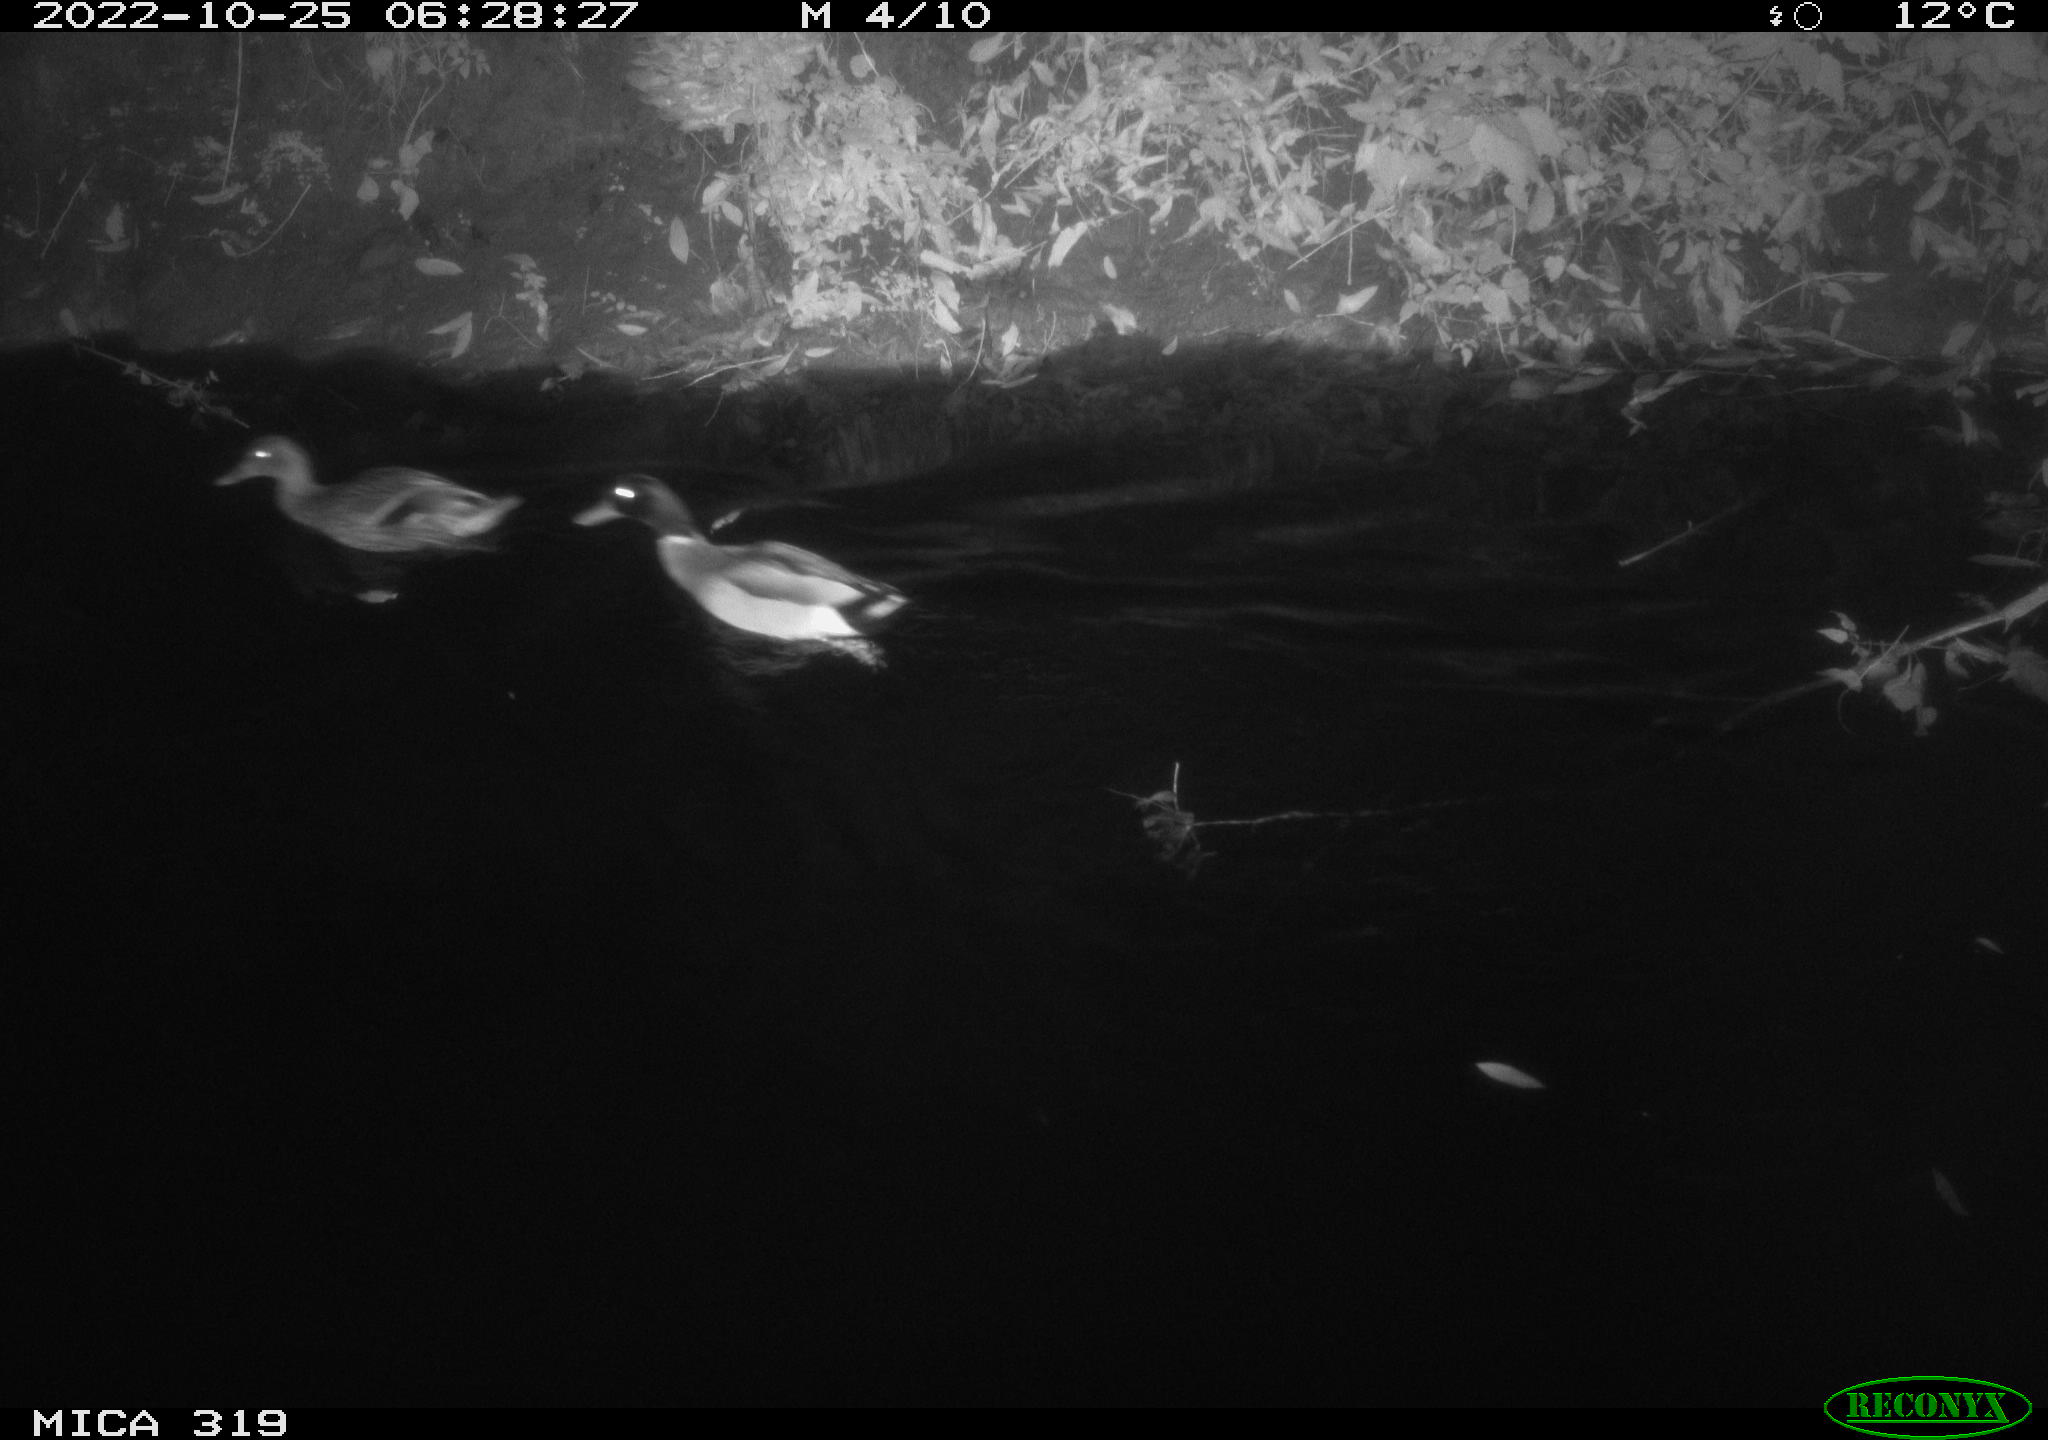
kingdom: Animalia
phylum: Chordata
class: Aves
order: Anseriformes
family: Anatidae
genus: Anas
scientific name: Anas
